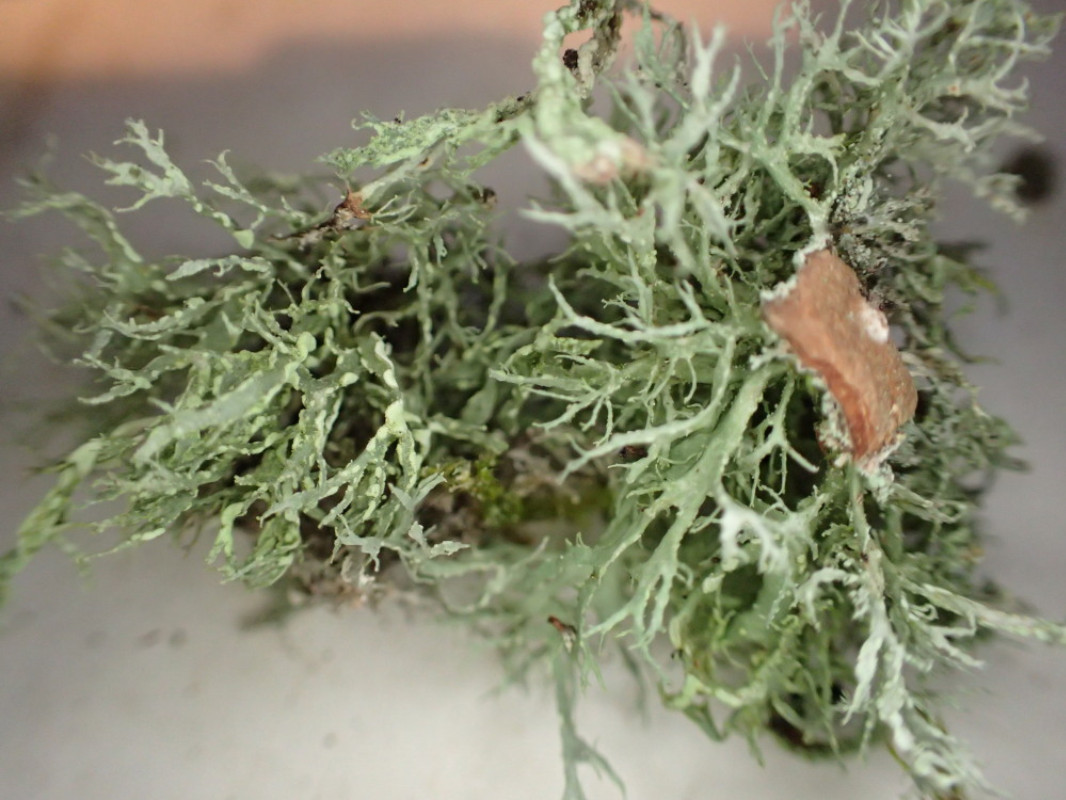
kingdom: Fungi
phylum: Ascomycota
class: Lecanoromycetes
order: Lecanorales
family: Ramalinaceae
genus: Ramalina
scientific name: Ramalina farinacea
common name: melet grenlav
